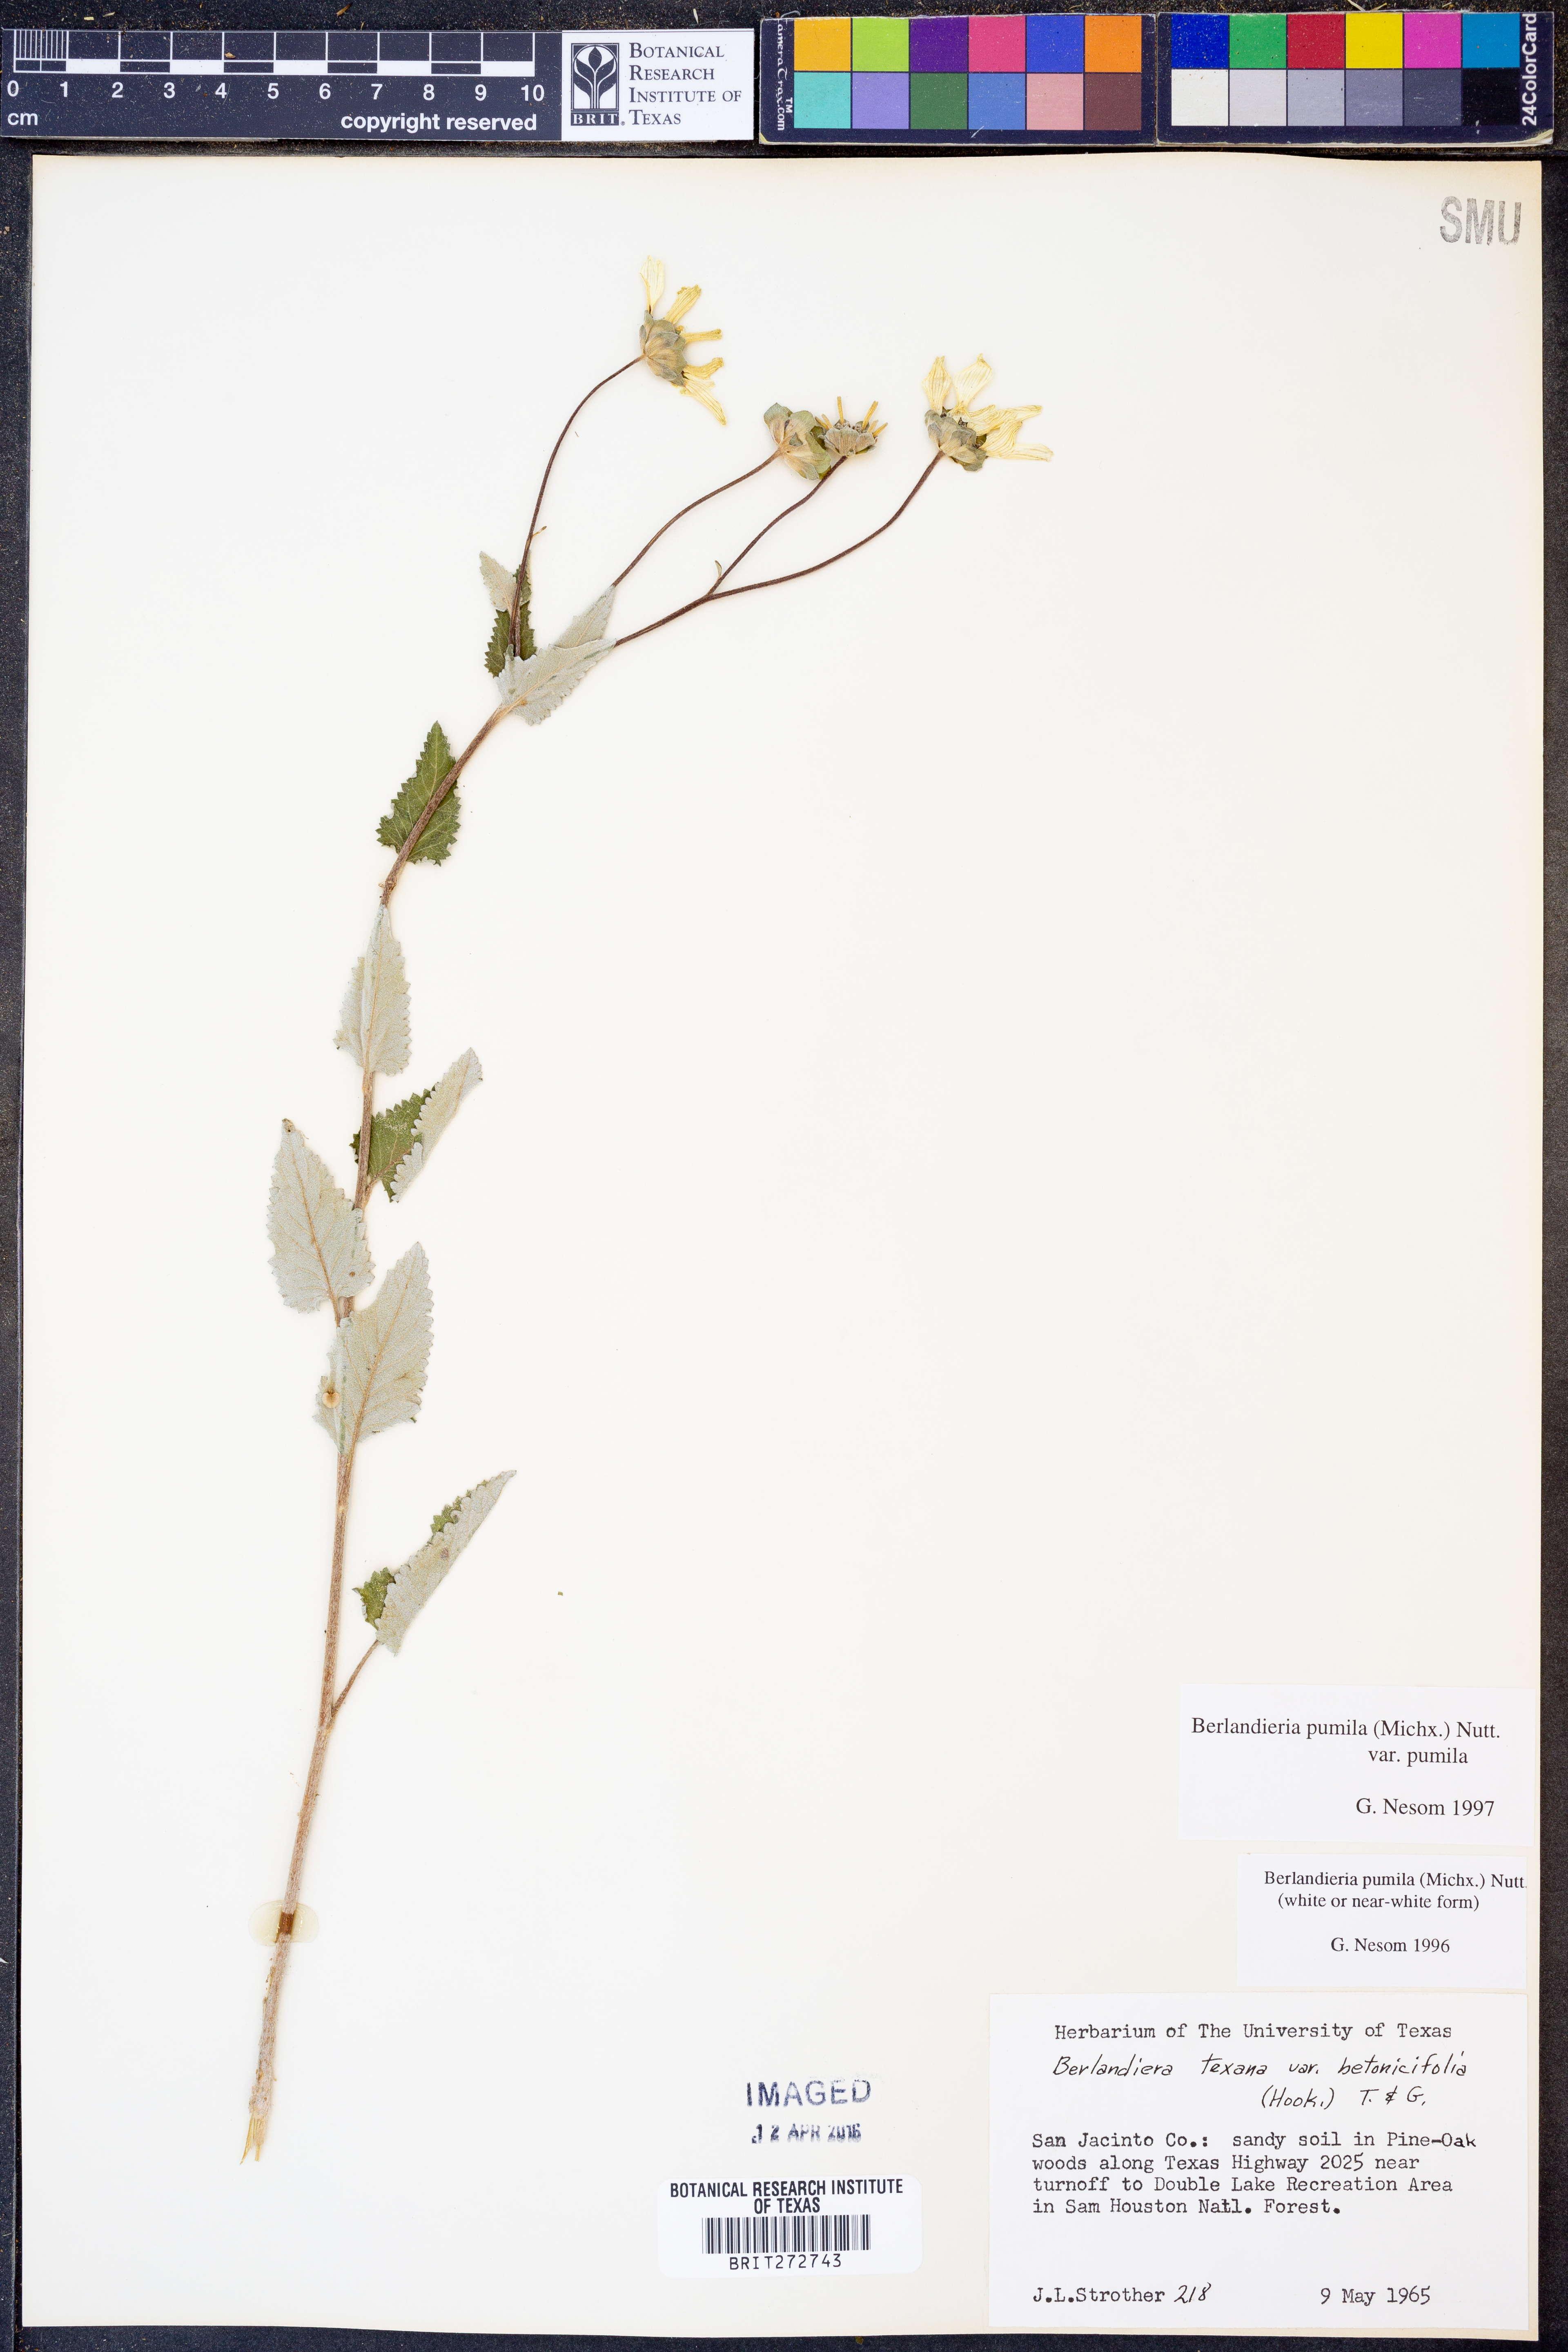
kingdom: Plantae
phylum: Tracheophyta
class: Magnoliopsida
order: Asterales
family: Asteraceae
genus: Berlandiera
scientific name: Berlandiera pumila
